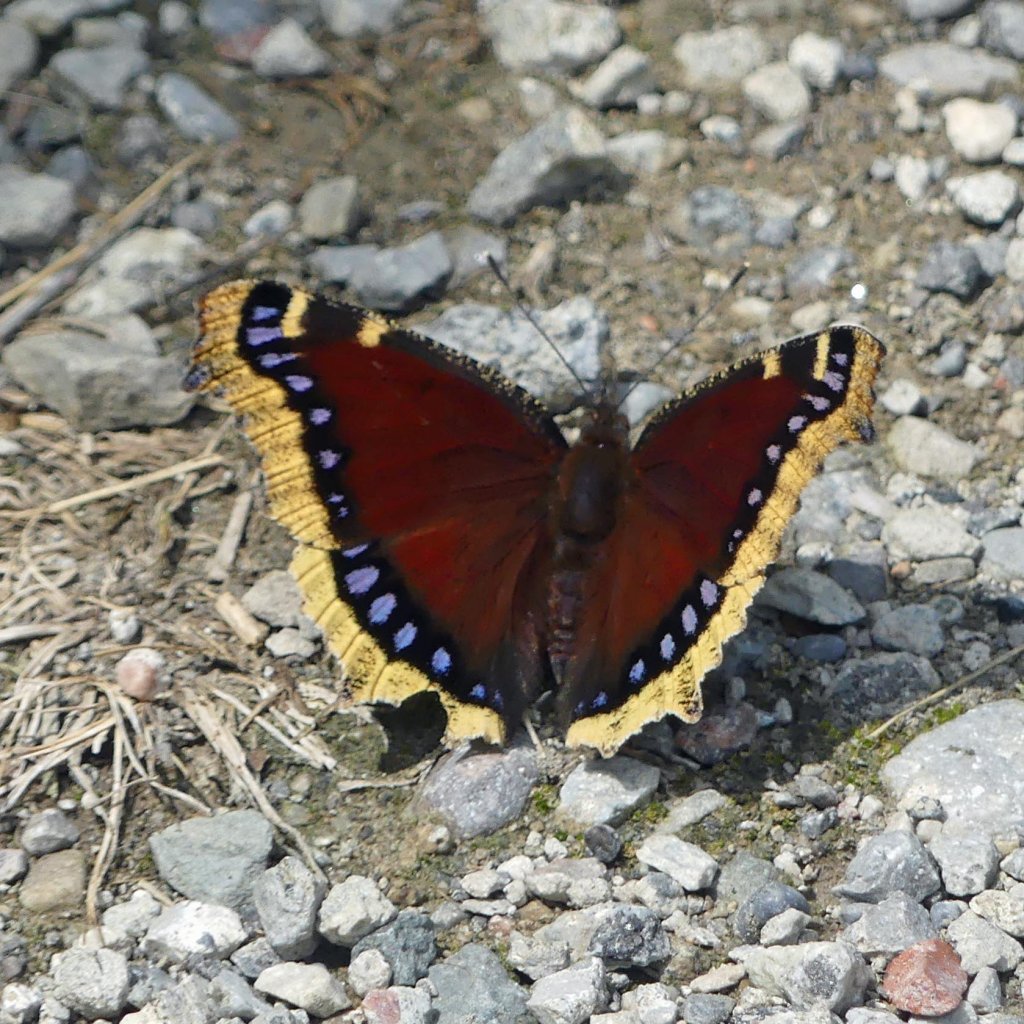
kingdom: Animalia
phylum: Arthropoda
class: Insecta
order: Lepidoptera
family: Nymphalidae
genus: Nymphalis
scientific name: Nymphalis antiopa
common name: Mourning Cloak
